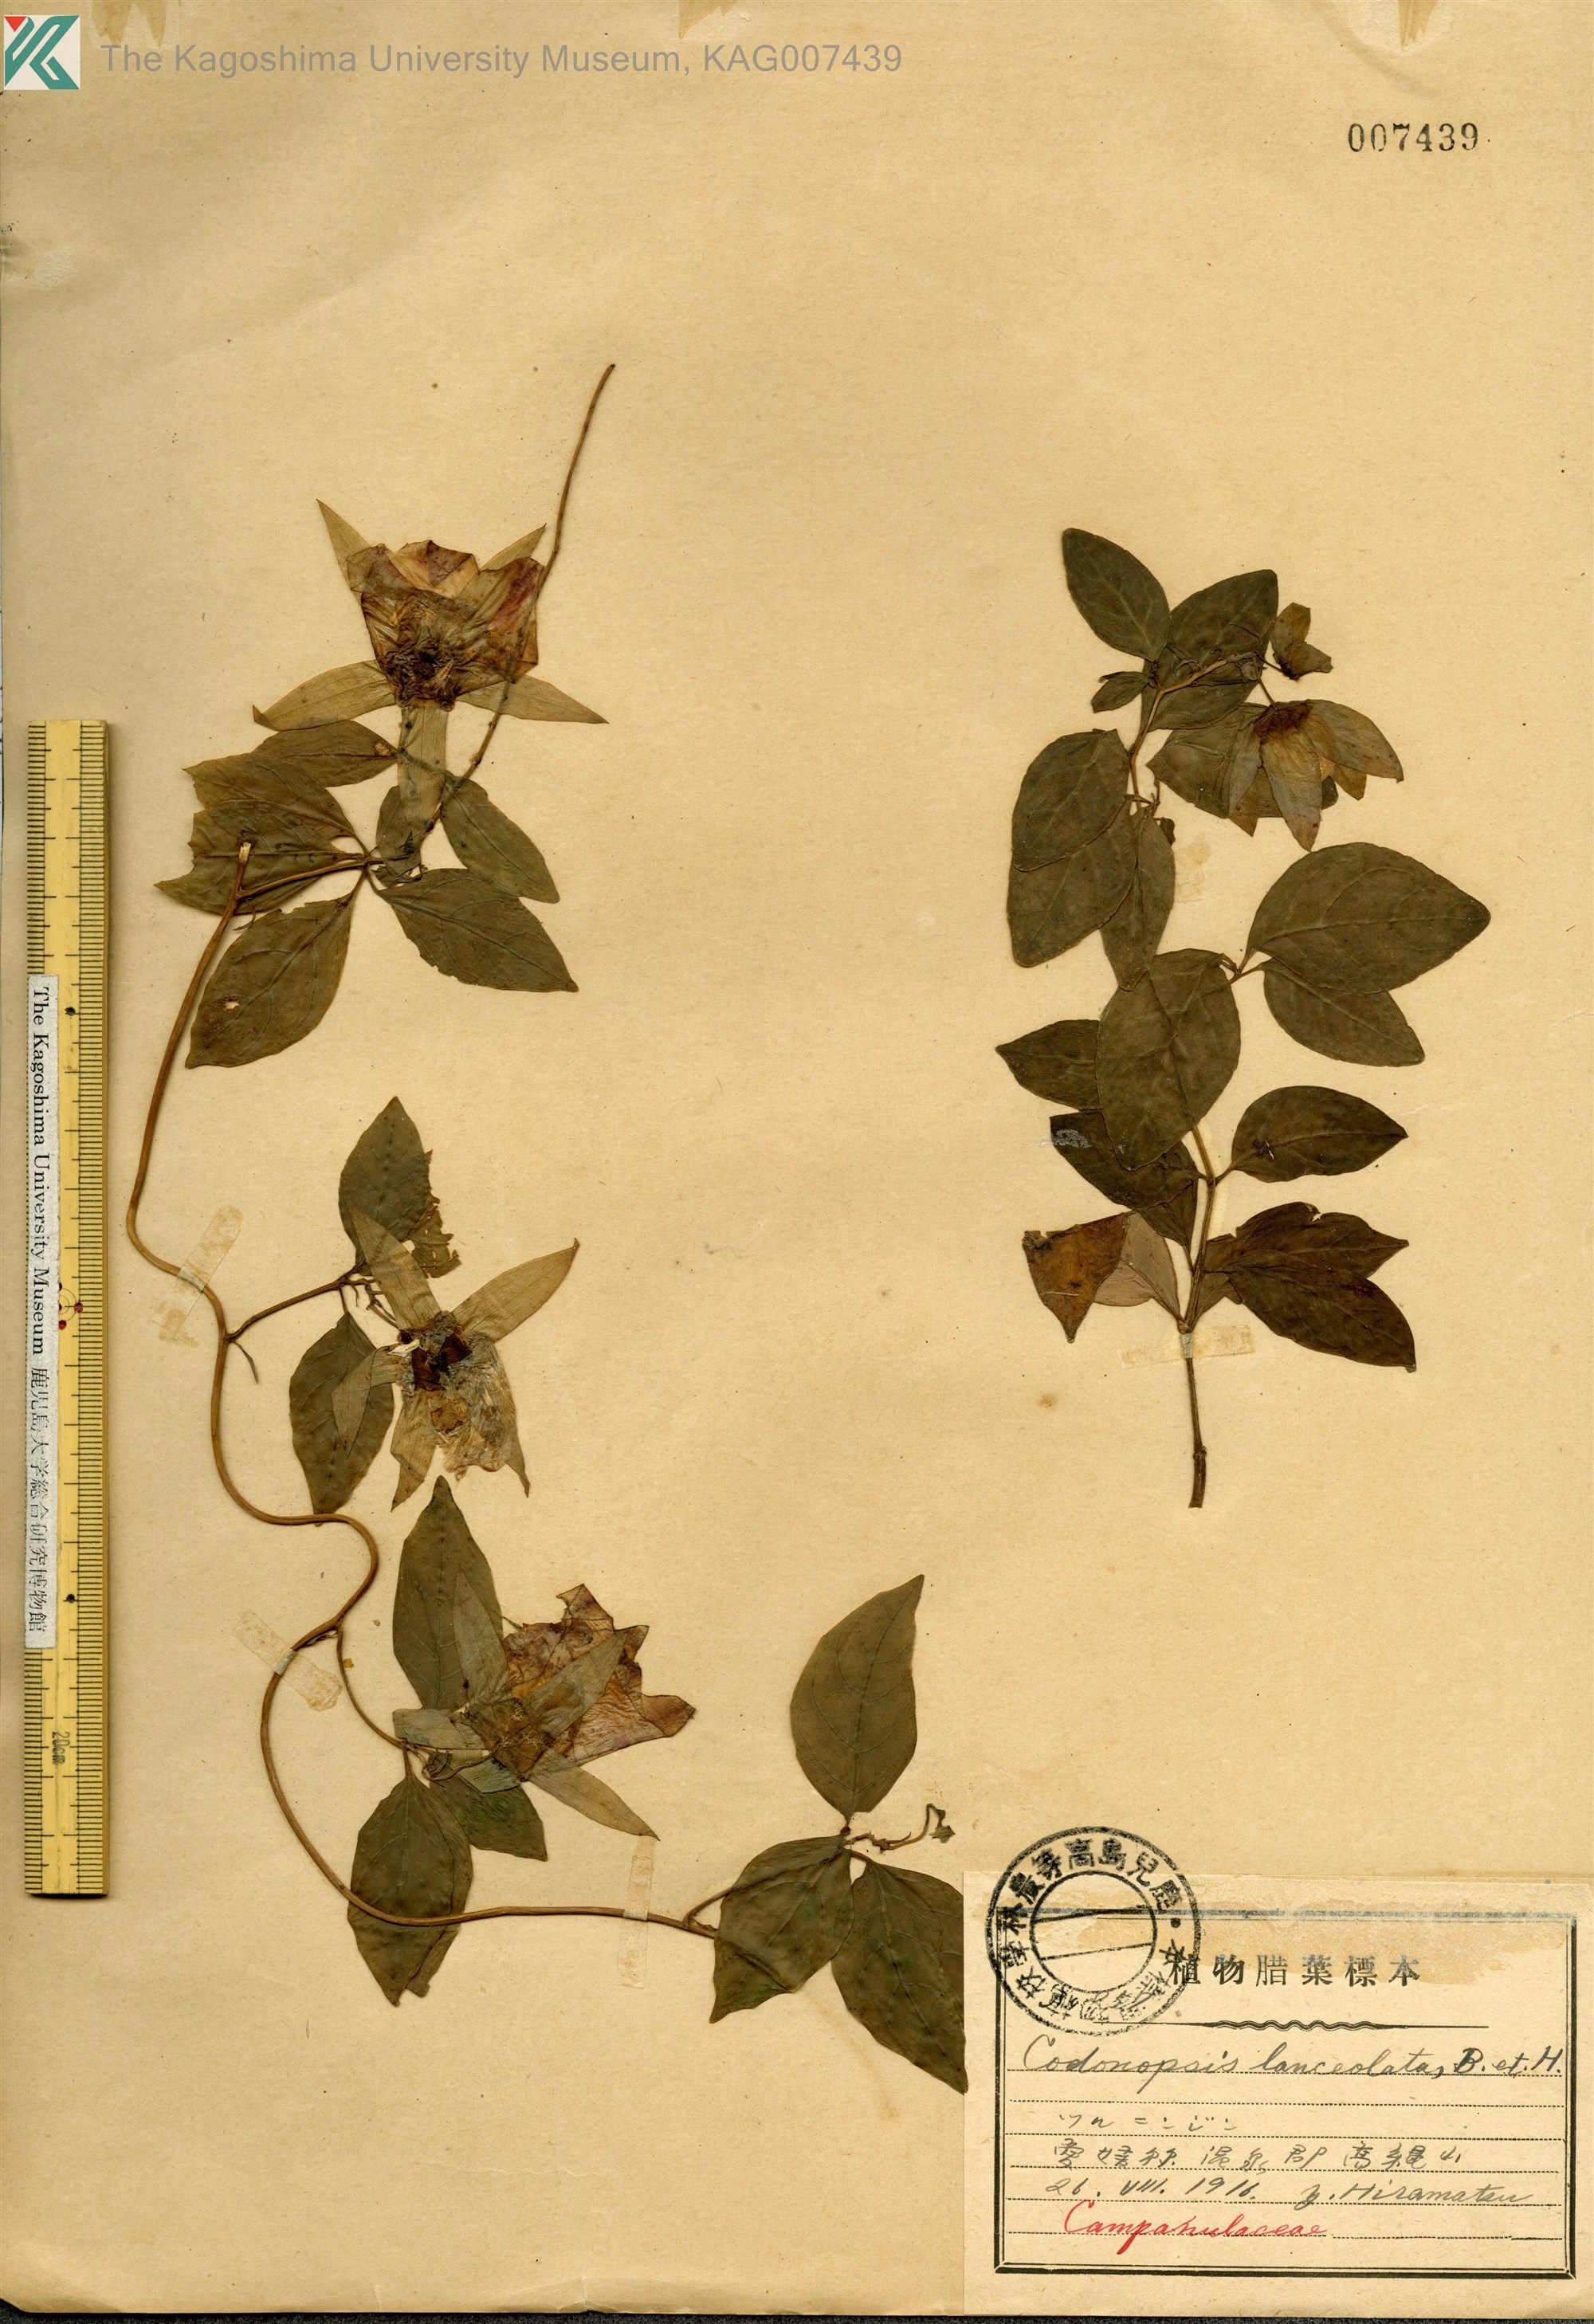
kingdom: Plantae
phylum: Tracheophyta
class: Magnoliopsida
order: Asterales
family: Campanulaceae
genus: Codonopsis
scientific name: Codonopsis lanceolata
